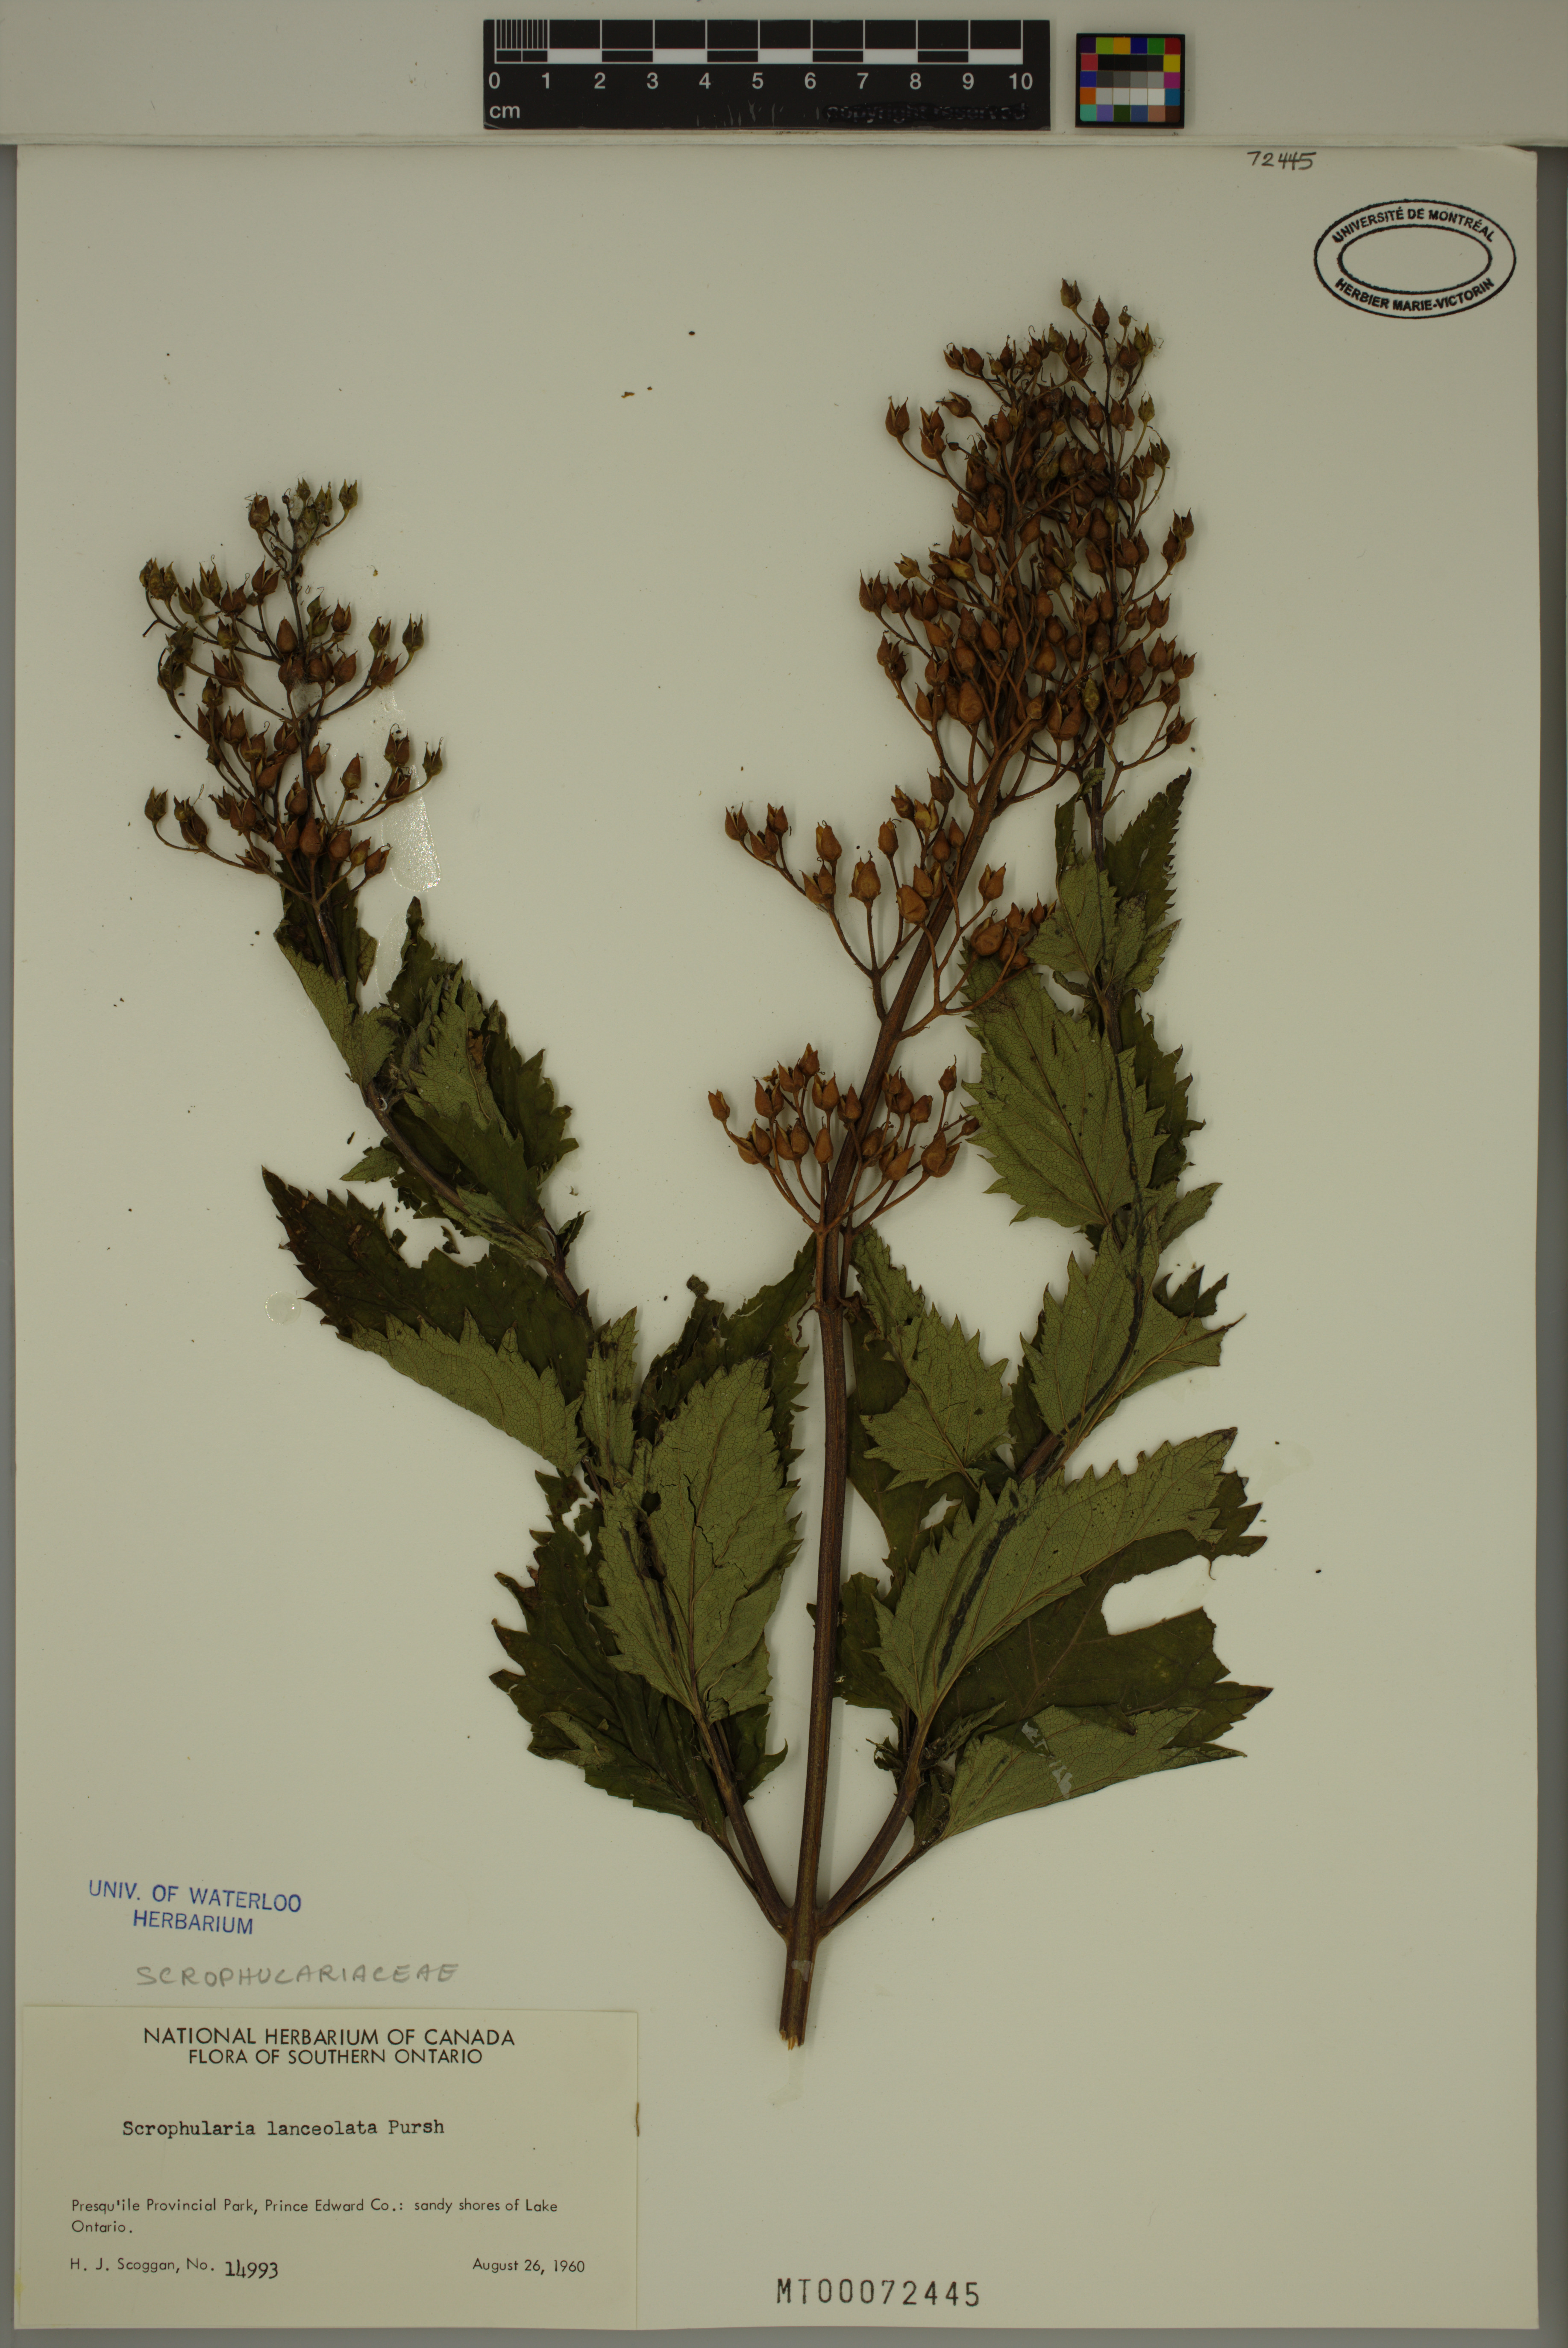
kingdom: Plantae
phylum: Tracheophyta
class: Magnoliopsida
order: Lamiales
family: Scrophulariaceae
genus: Scrophularia
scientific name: Scrophularia lanceolata
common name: American figwort
